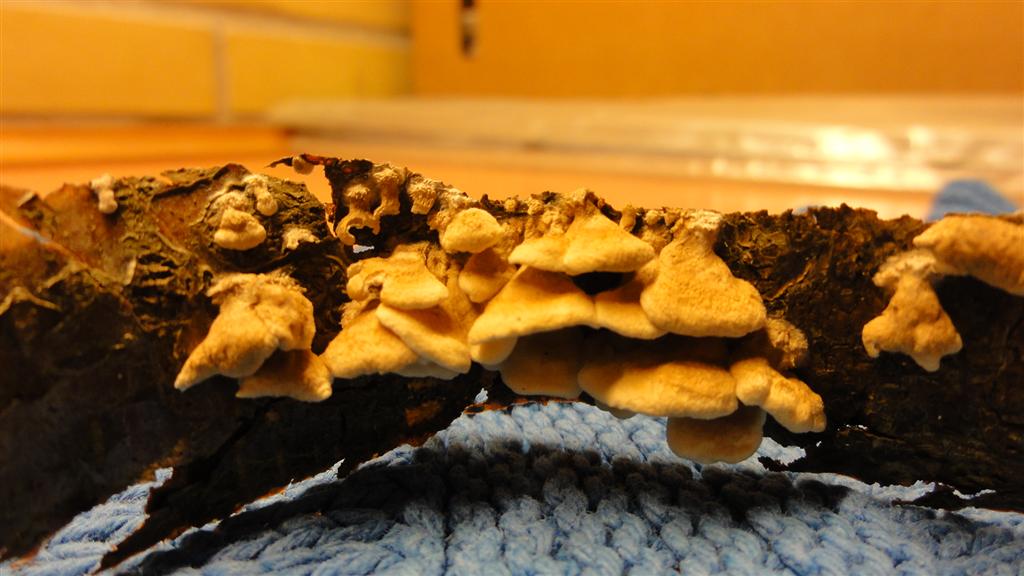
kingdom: Fungi
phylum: Basidiomycota
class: Agaricomycetes
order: Amylocorticiales
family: Amylocorticiaceae
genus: Plicaturopsis
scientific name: Plicaturopsis crispa
